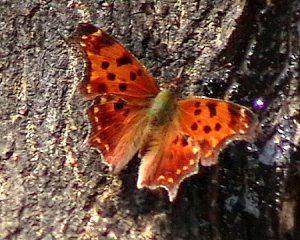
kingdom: Animalia
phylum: Arthropoda
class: Insecta
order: Lepidoptera
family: Nymphalidae
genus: Polygonia
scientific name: Polygonia comma
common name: Eastern Comma
